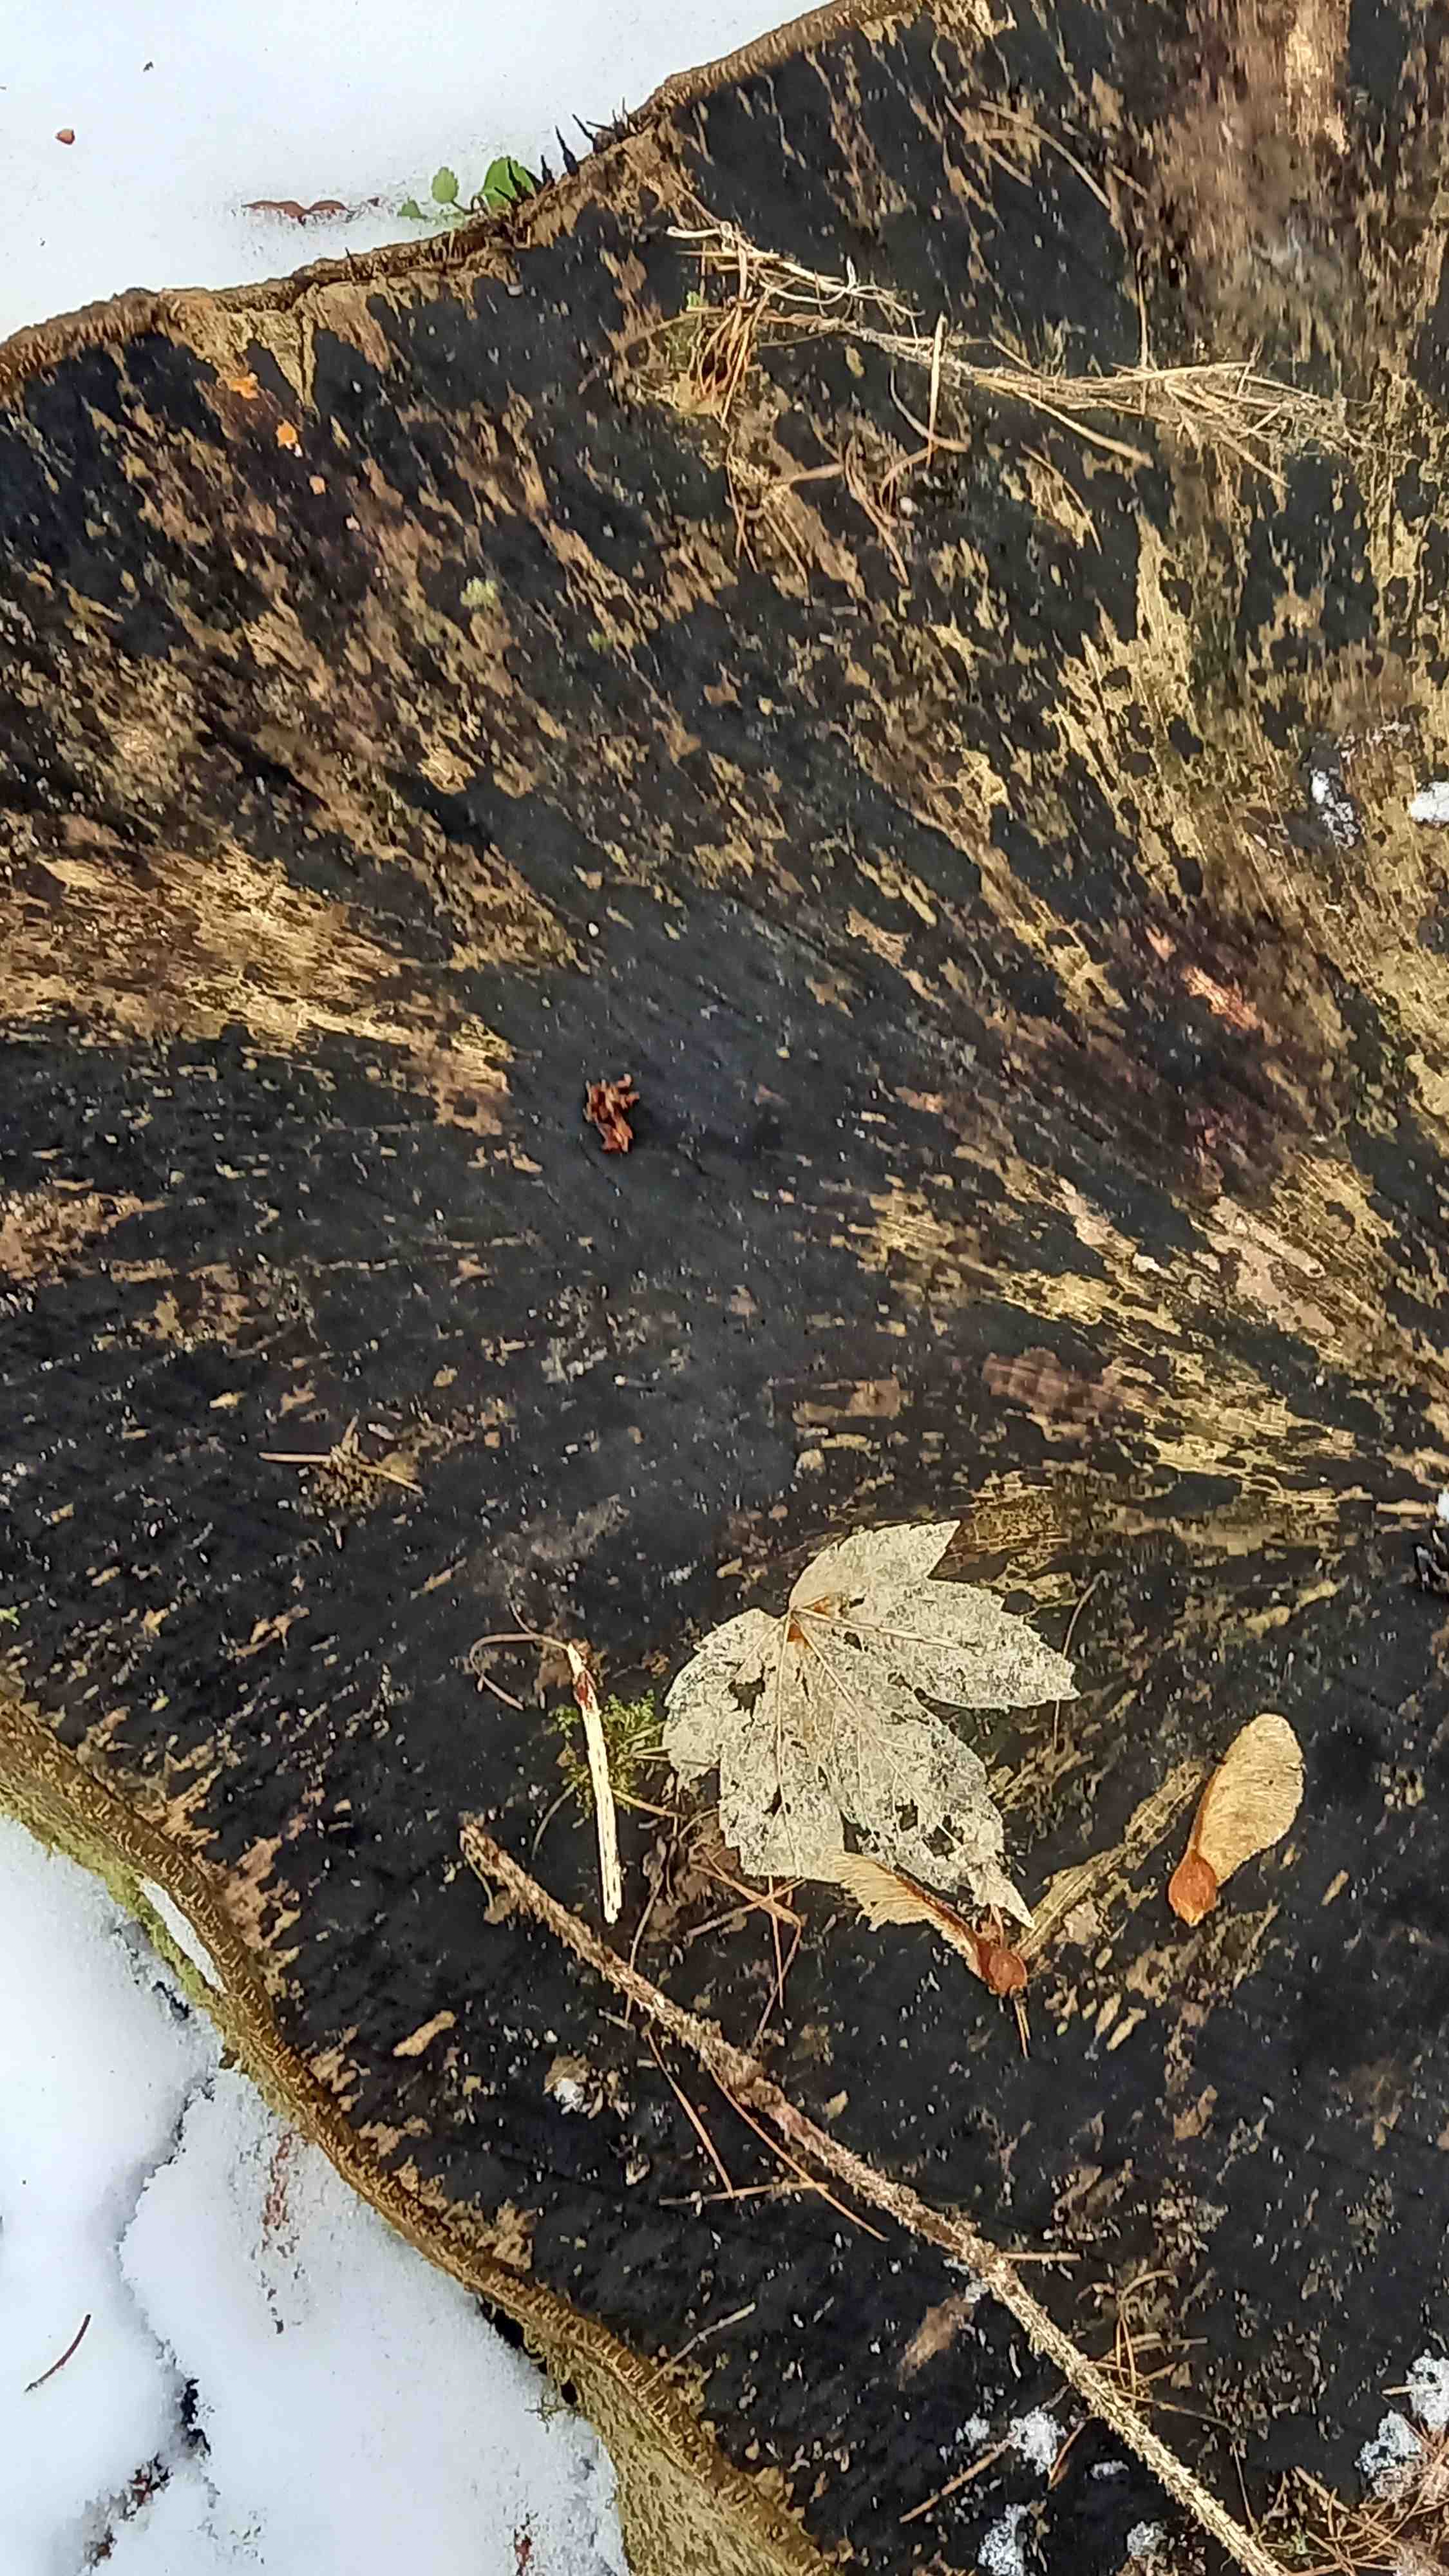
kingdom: Fungi
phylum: Ascomycota
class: Leotiomycetes
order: Helotiales
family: Helotiaceae
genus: Bispora
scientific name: Bispora pallescens
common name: måtte-snitskive
